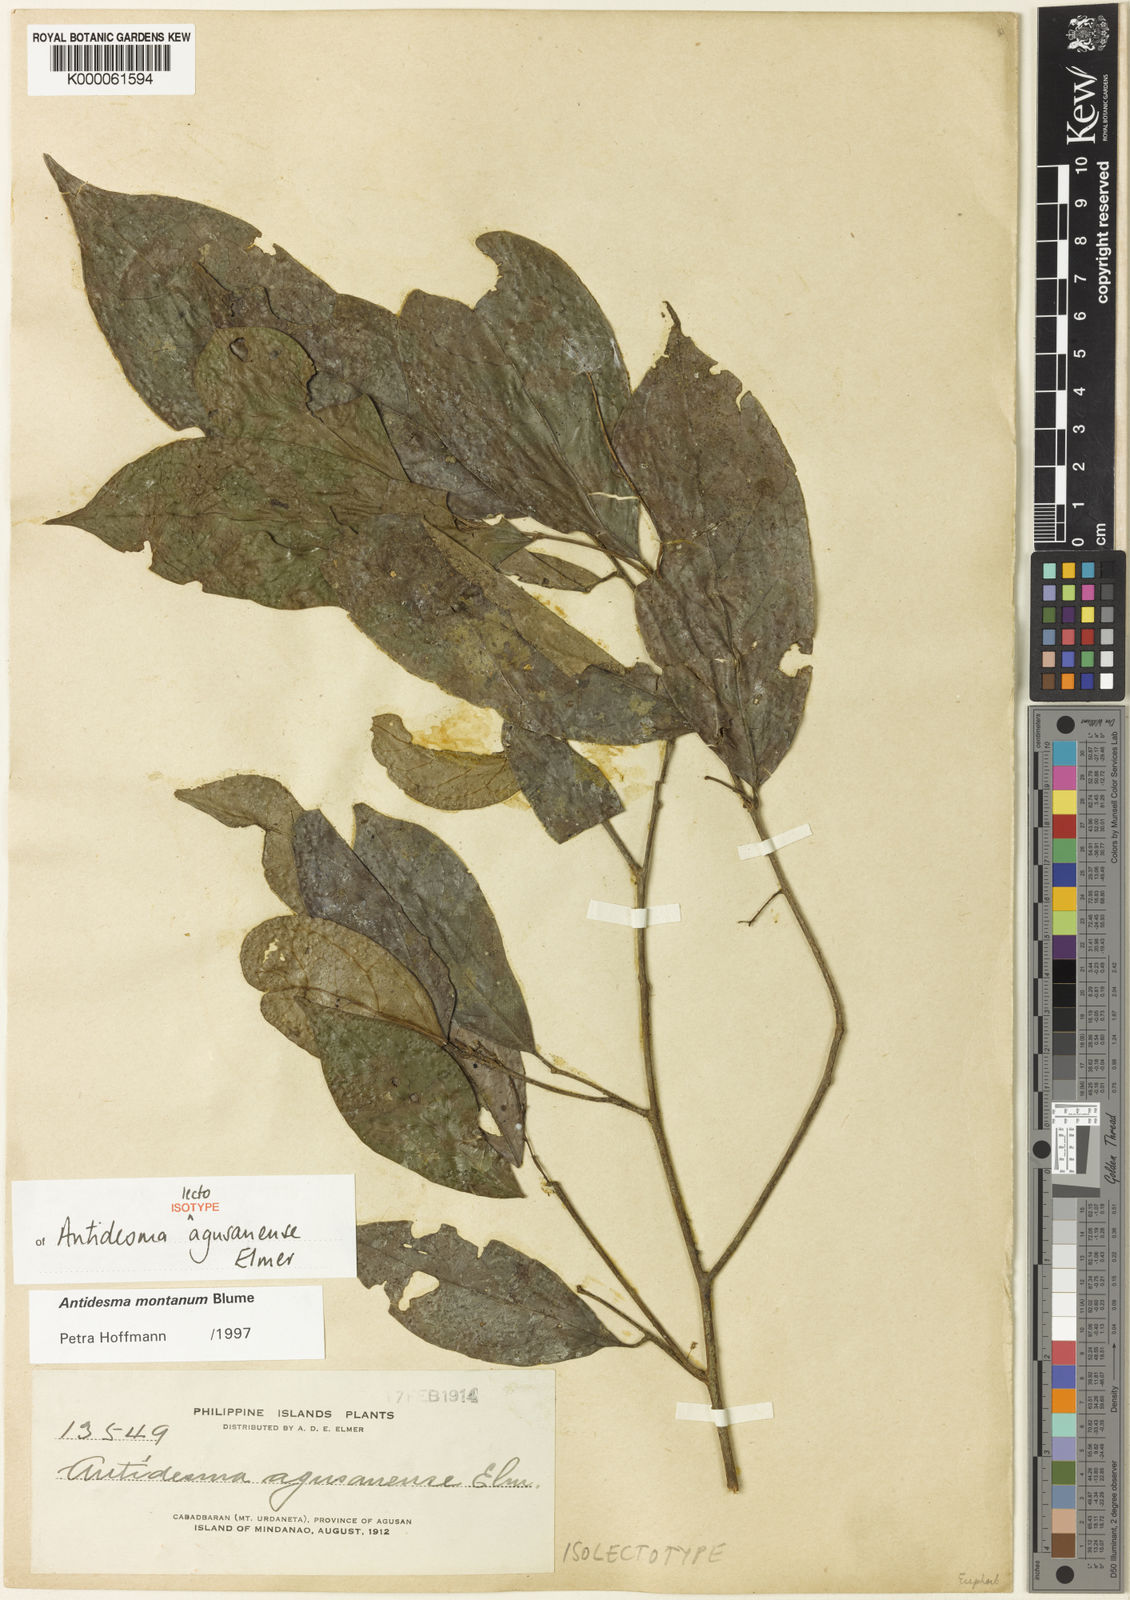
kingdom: Plantae
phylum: Tracheophyta
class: Magnoliopsida
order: Malpighiales
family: Phyllanthaceae
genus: Antidesma
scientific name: Antidesma montanum
